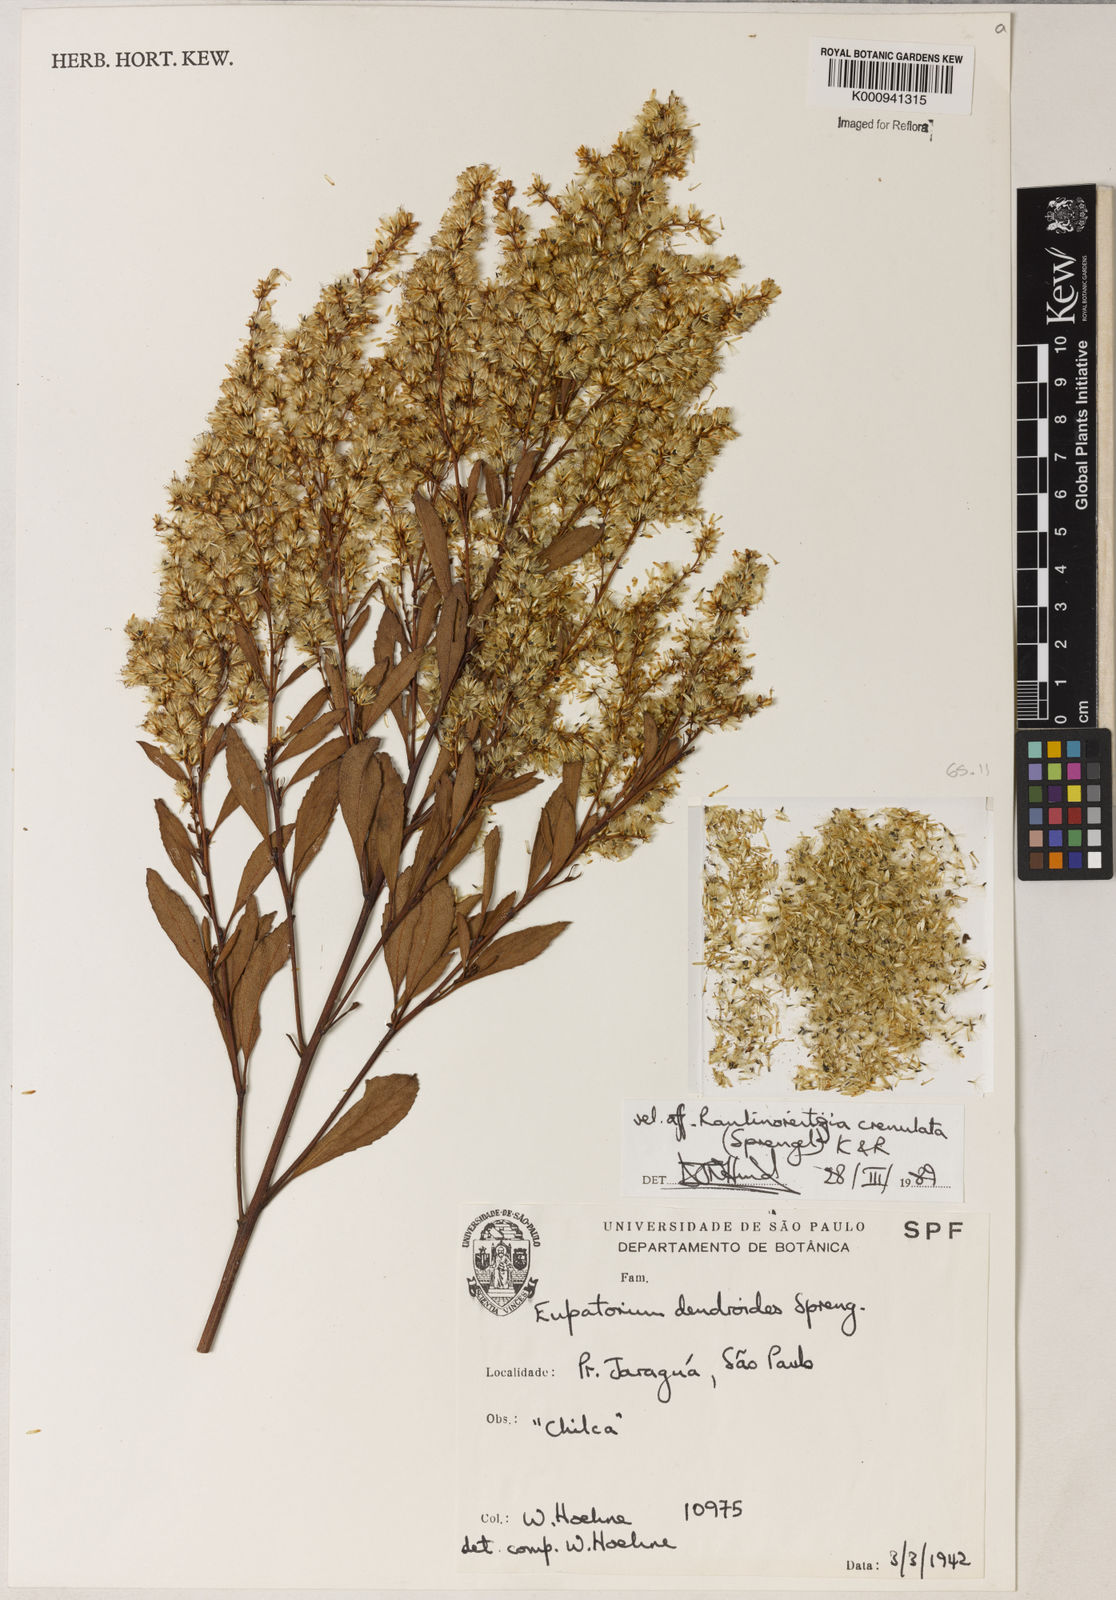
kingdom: Plantae
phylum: Tracheophyta
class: Magnoliopsida
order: Asterales
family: Asteraceae
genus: Raulinoreitzia
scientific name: Raulinoreitzia crenulata
